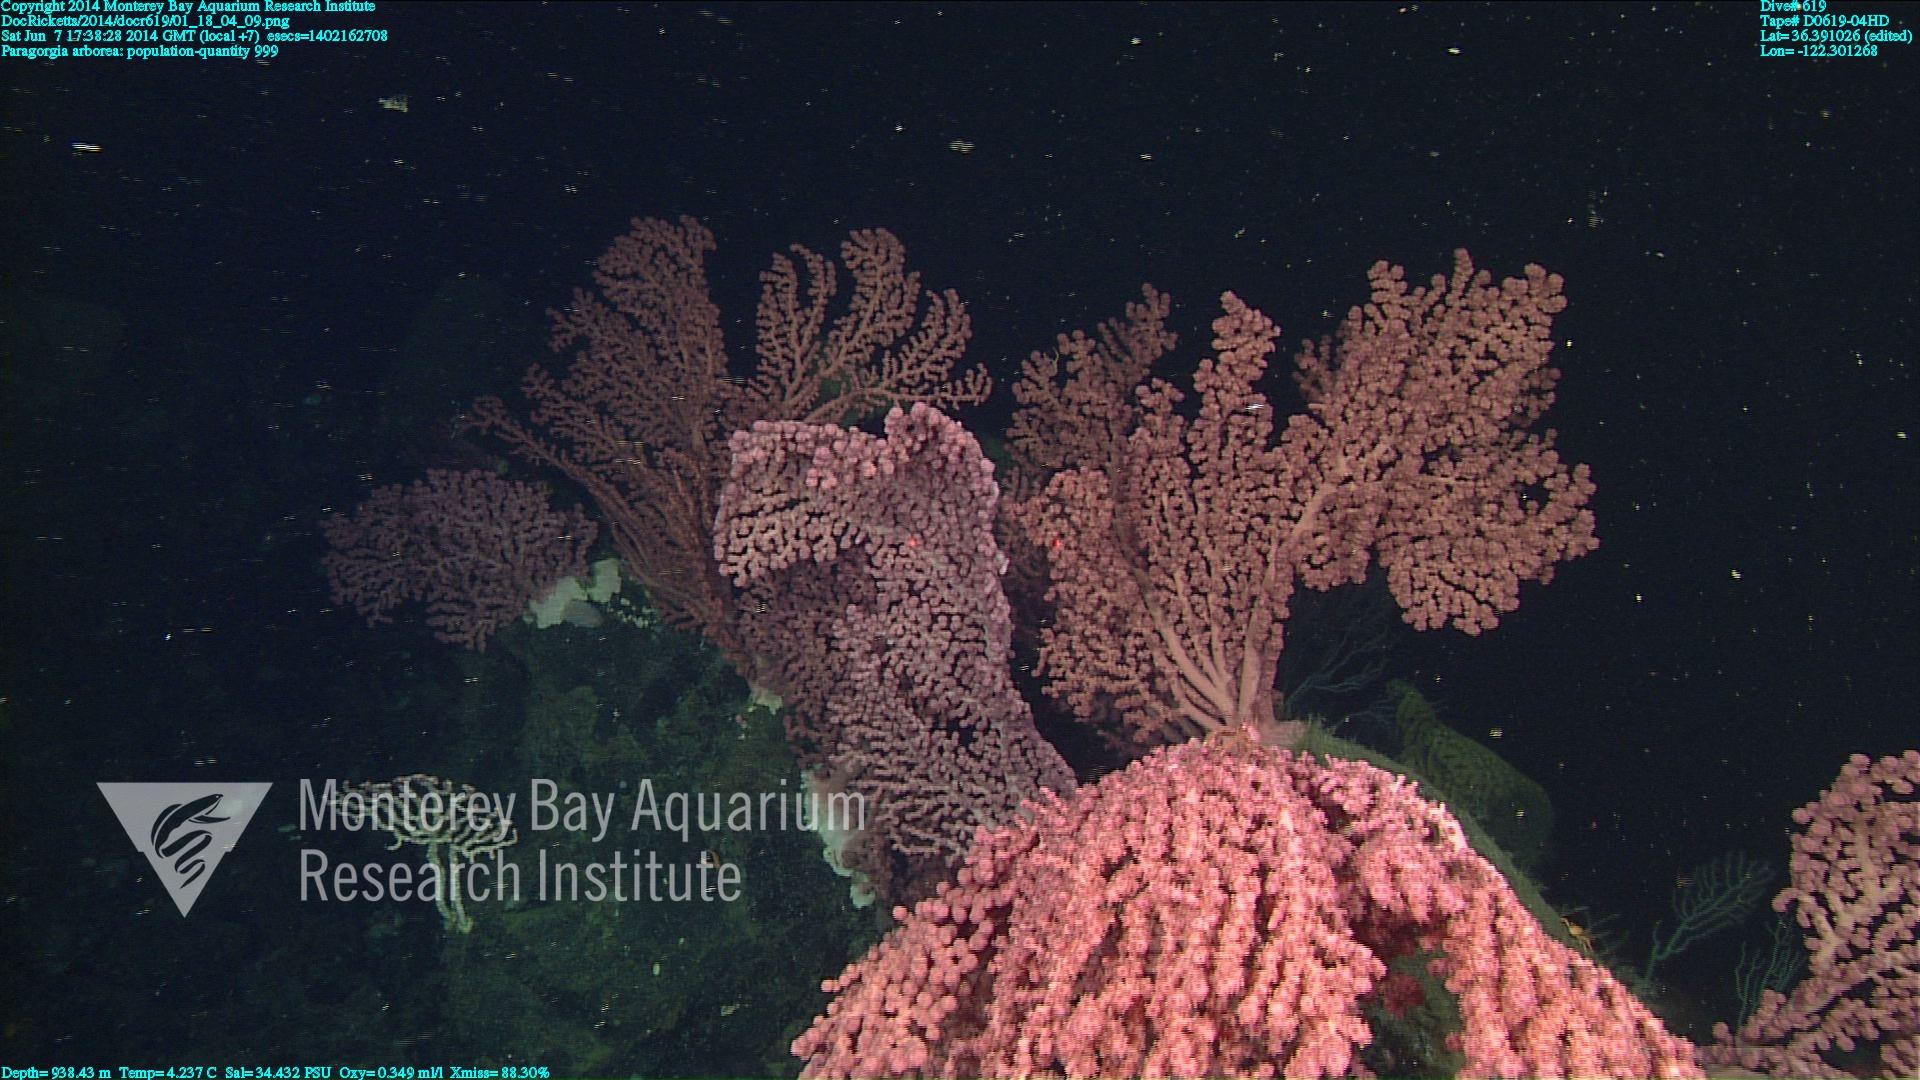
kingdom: Animalia
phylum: Cnidaria
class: Anthozoa
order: Scleralcyonacea
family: Coralliidae
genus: Paragorgia
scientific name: Paragorgia arborea
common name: Bubble gum coral
